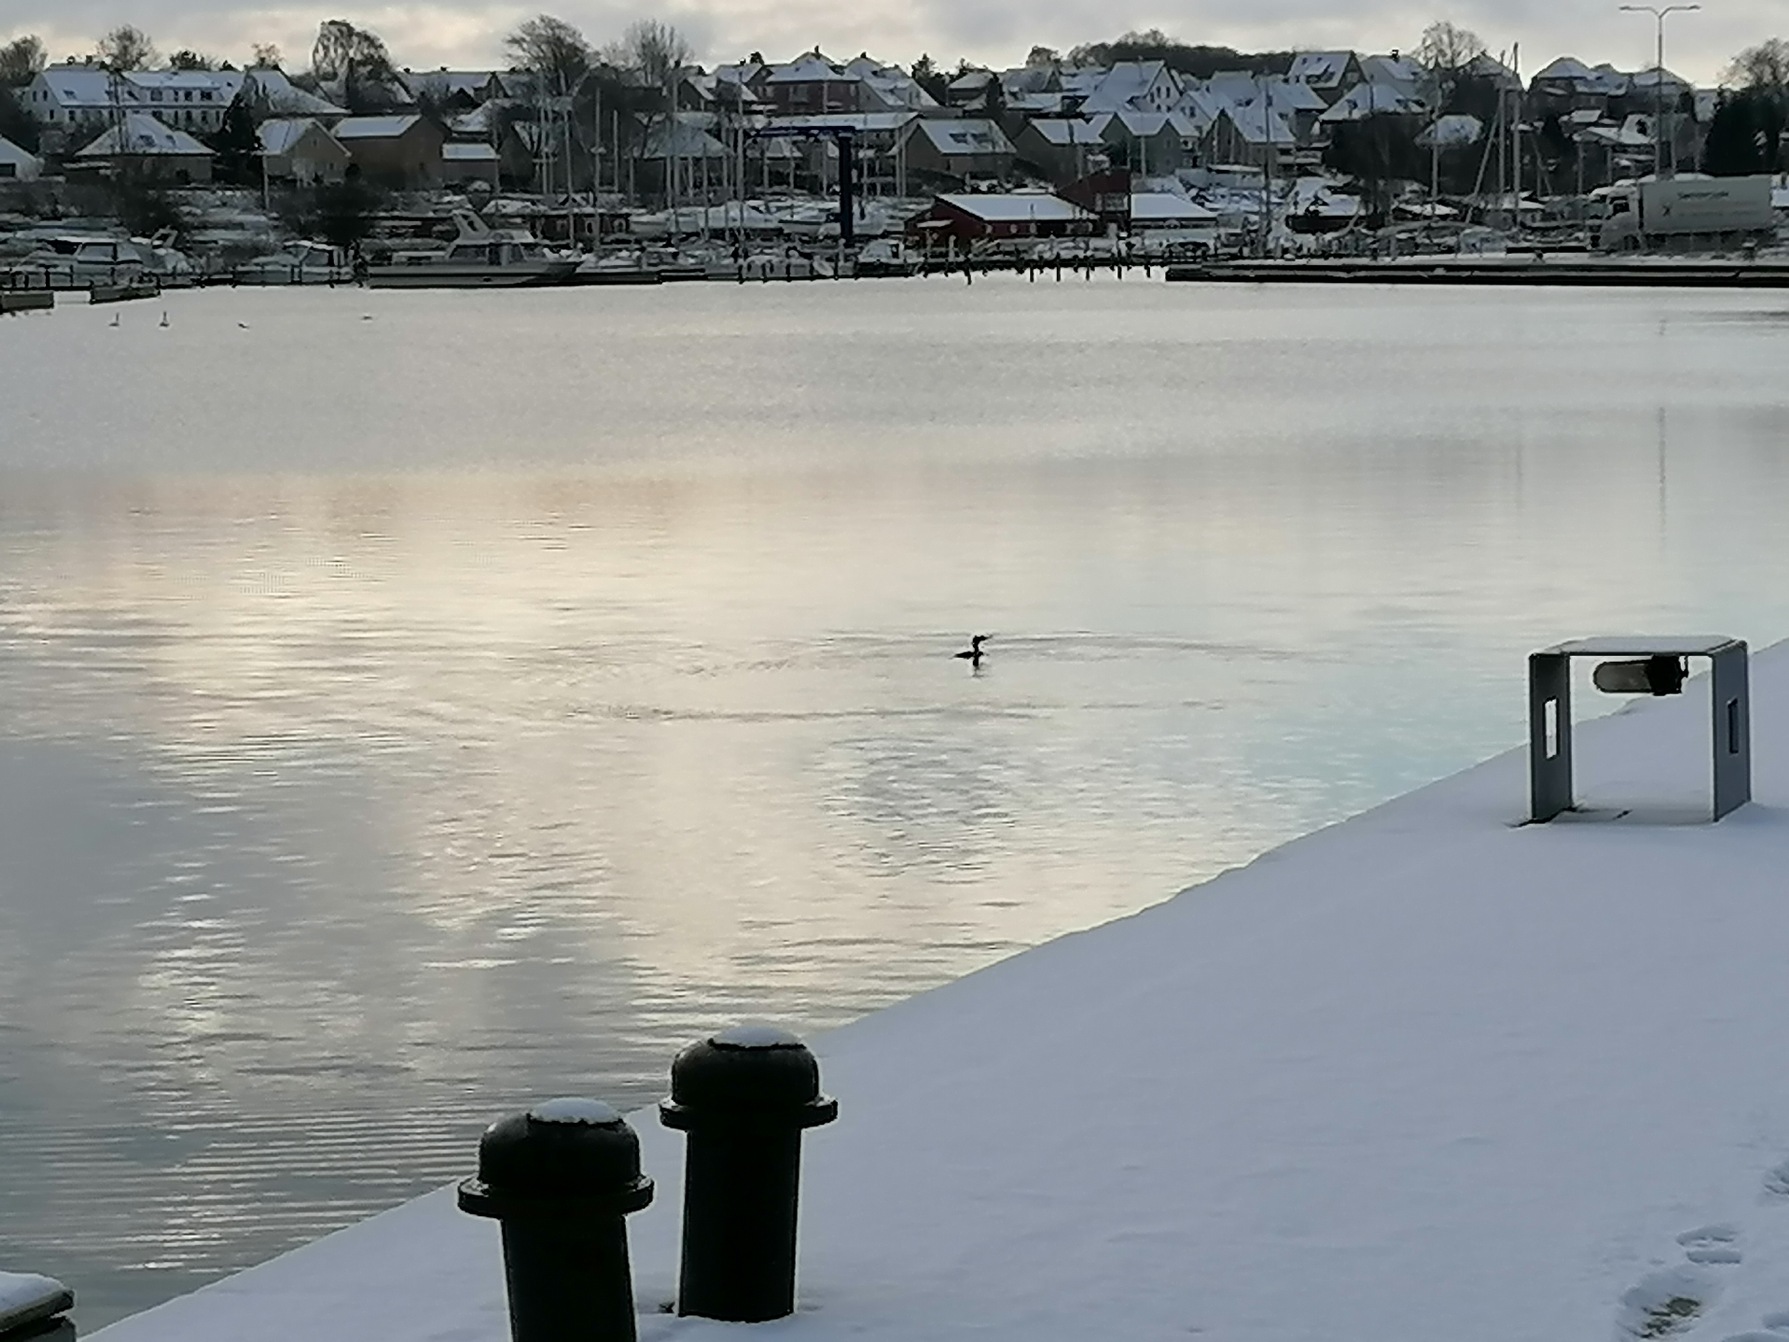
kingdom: Animalia
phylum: Chordata
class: Aves
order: Suliformes
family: Phalacrocoracidae
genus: Phalacrocorax
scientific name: Phalacrocorax carbo
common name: Skarv
